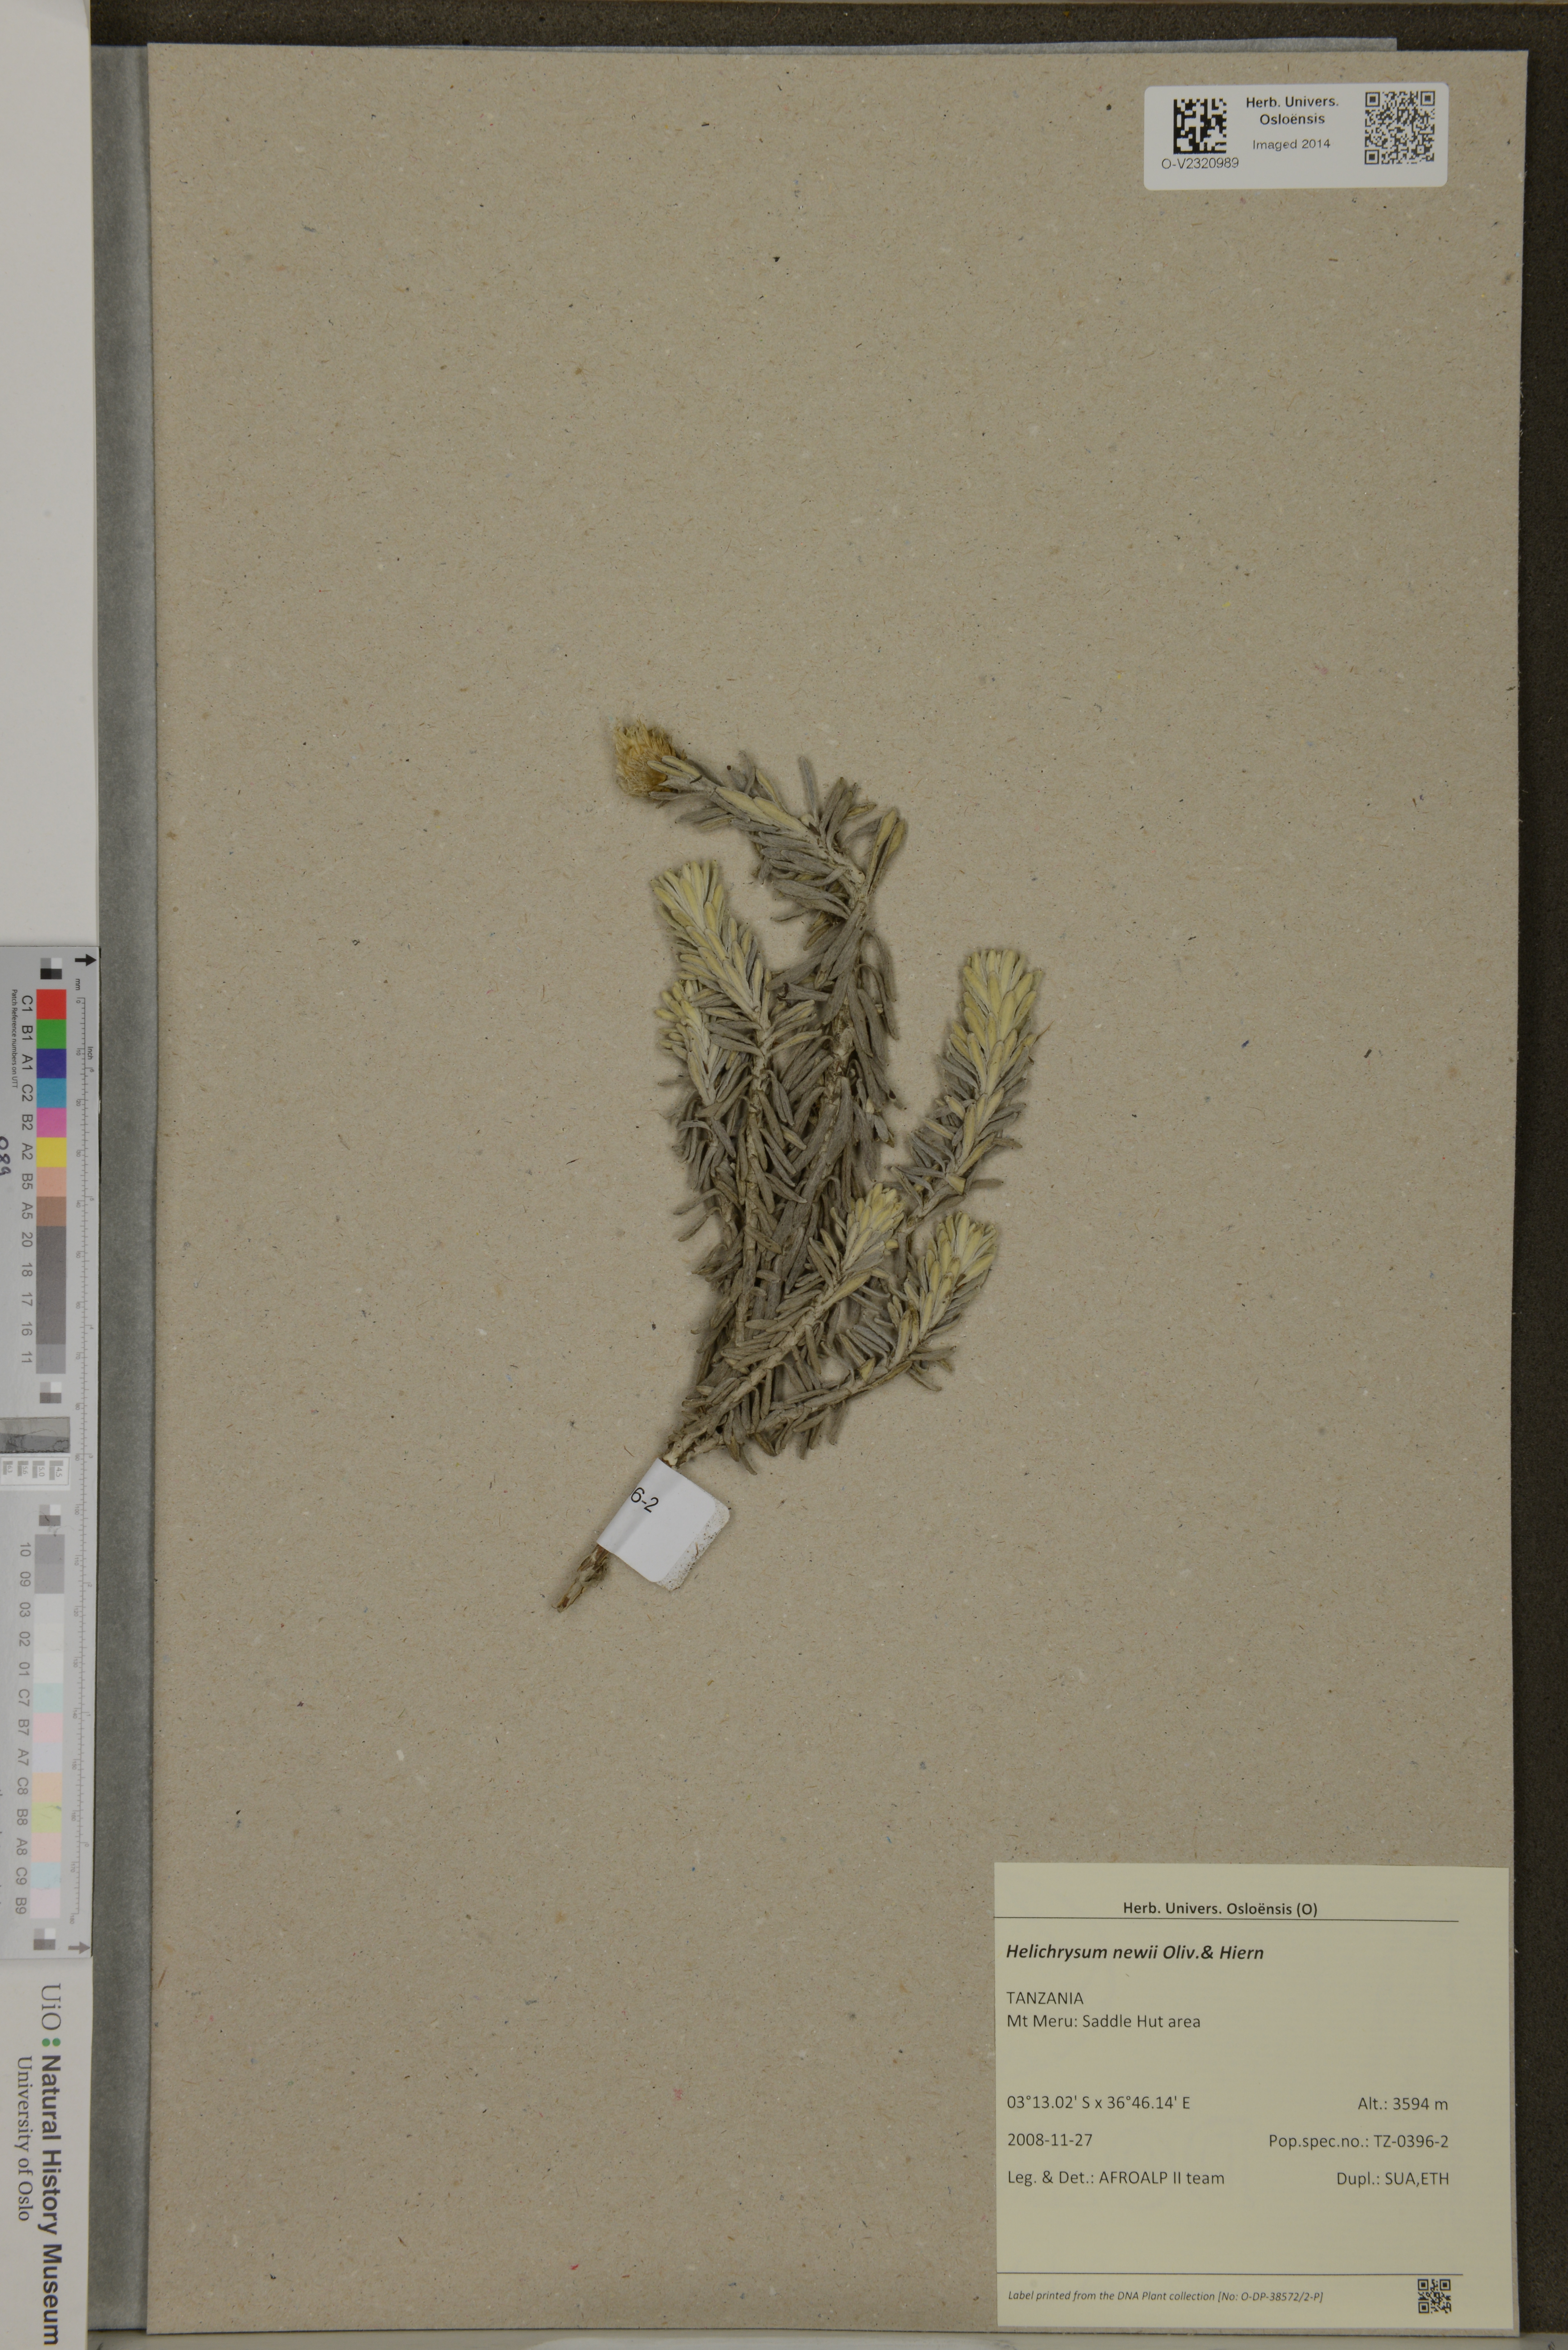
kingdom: Plantae
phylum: Tracheophyta
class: Magnoliopsida
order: Asterales
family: Asteraceae
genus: Helichrysum
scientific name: Helichrysum newii
